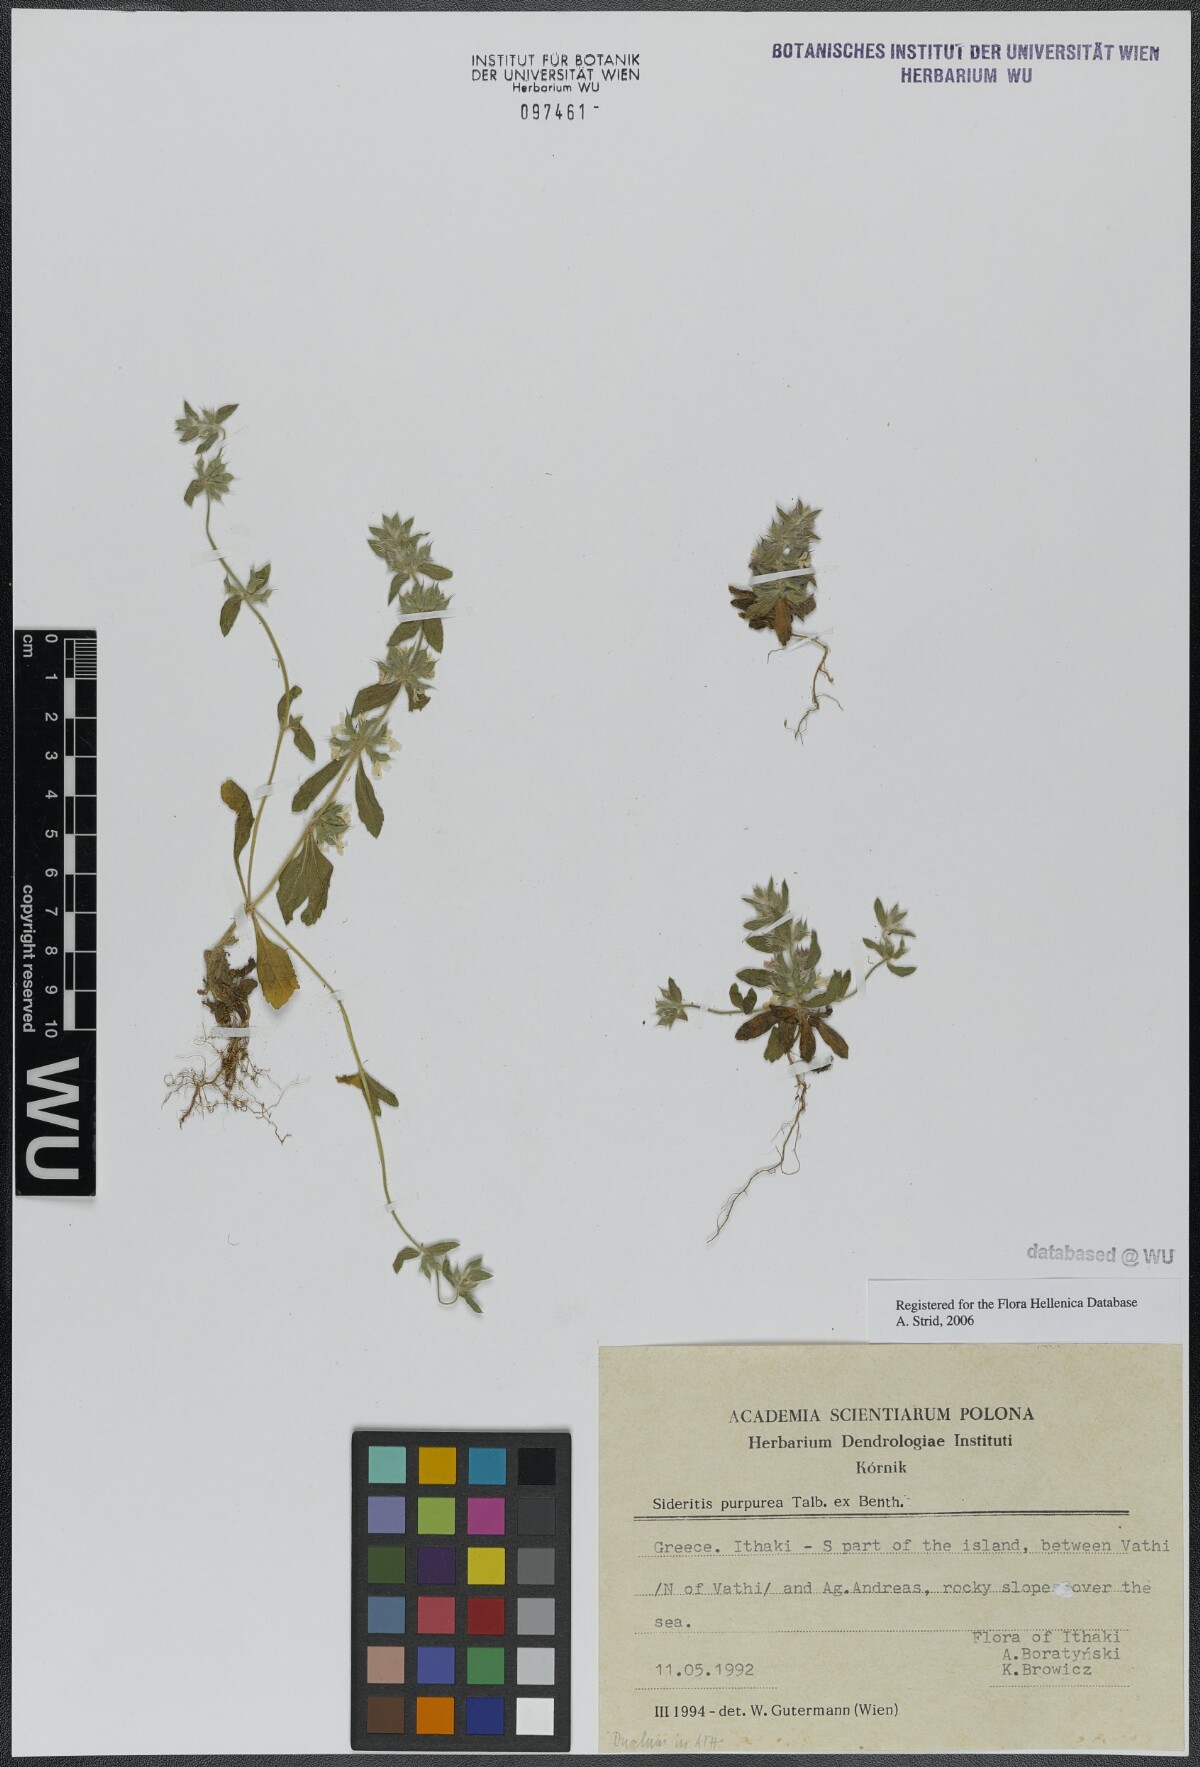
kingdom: Plantae
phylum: Tracheophyta
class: Magnoliopsida
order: Lamiales
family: Lamiaceae
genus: Sideritis
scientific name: Sideritis romana
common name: Simplebeak ironwort
